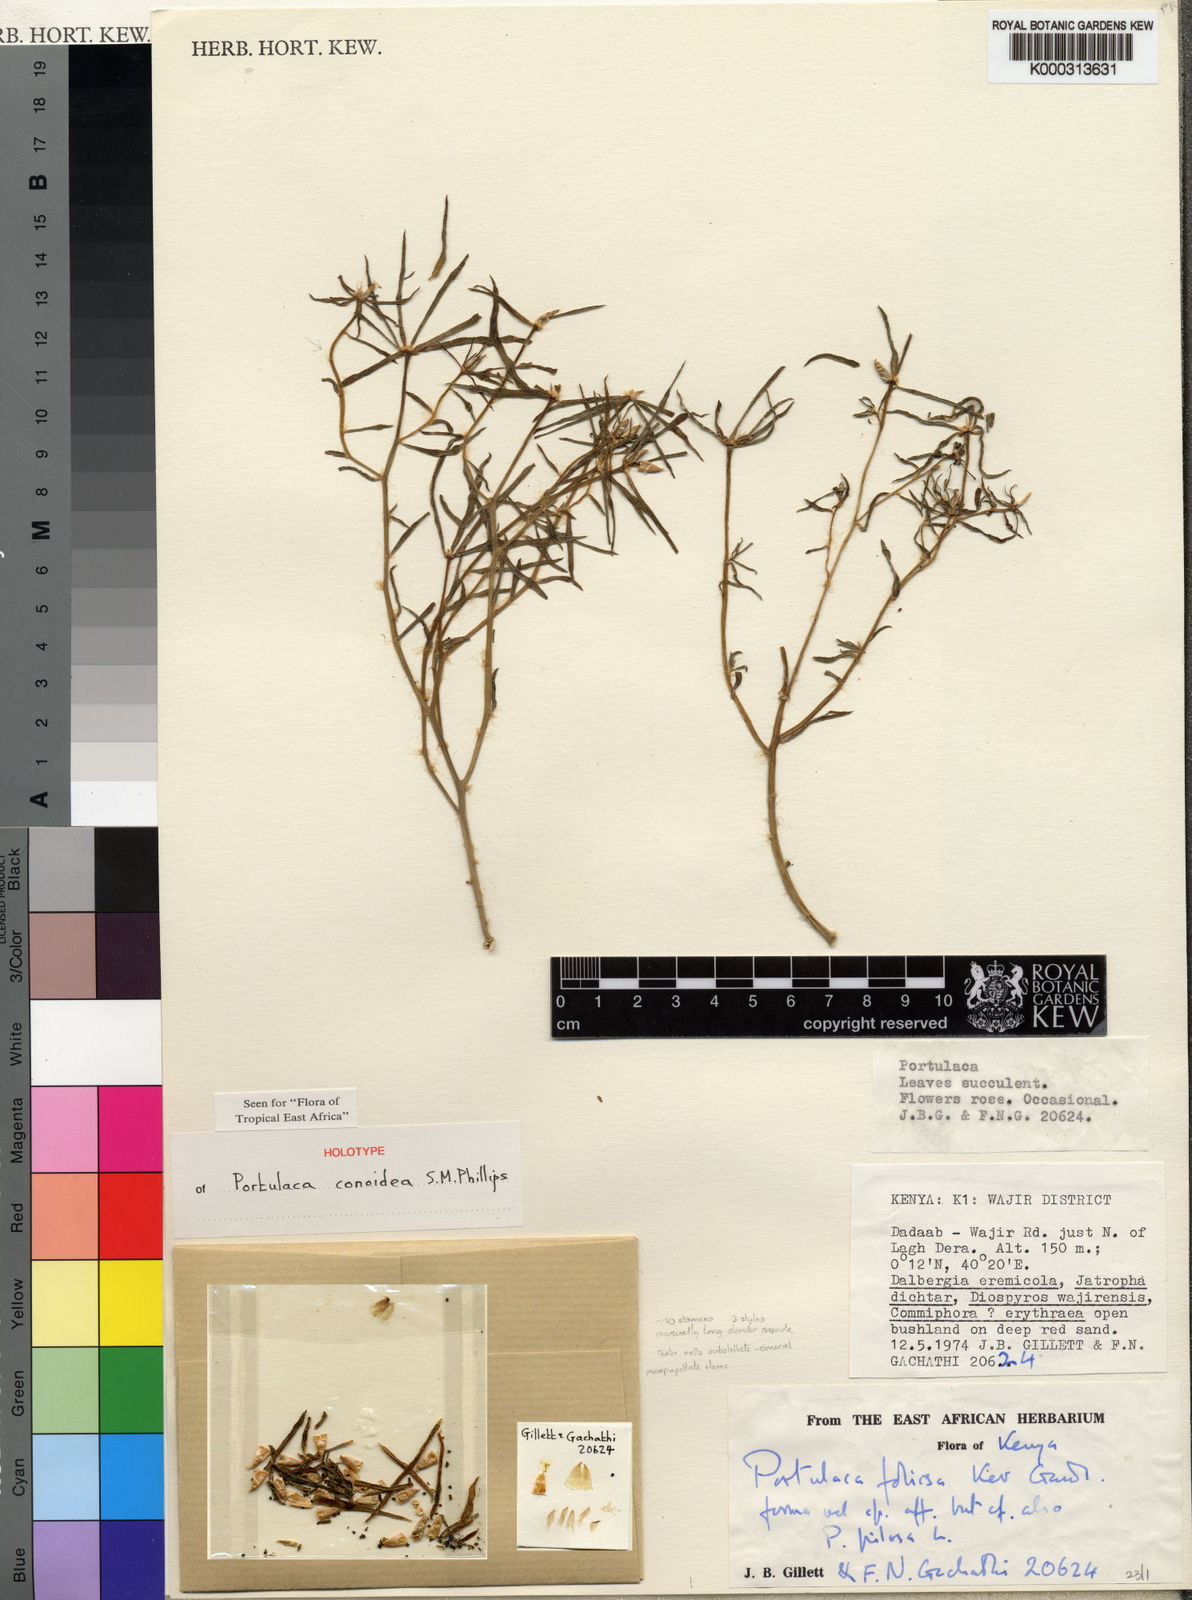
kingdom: Plantae
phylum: Tracheophyta
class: Magnoliopsida
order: Caryophyllales
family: Portulacaceae
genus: Portulaca
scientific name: Portulaca conoidea
